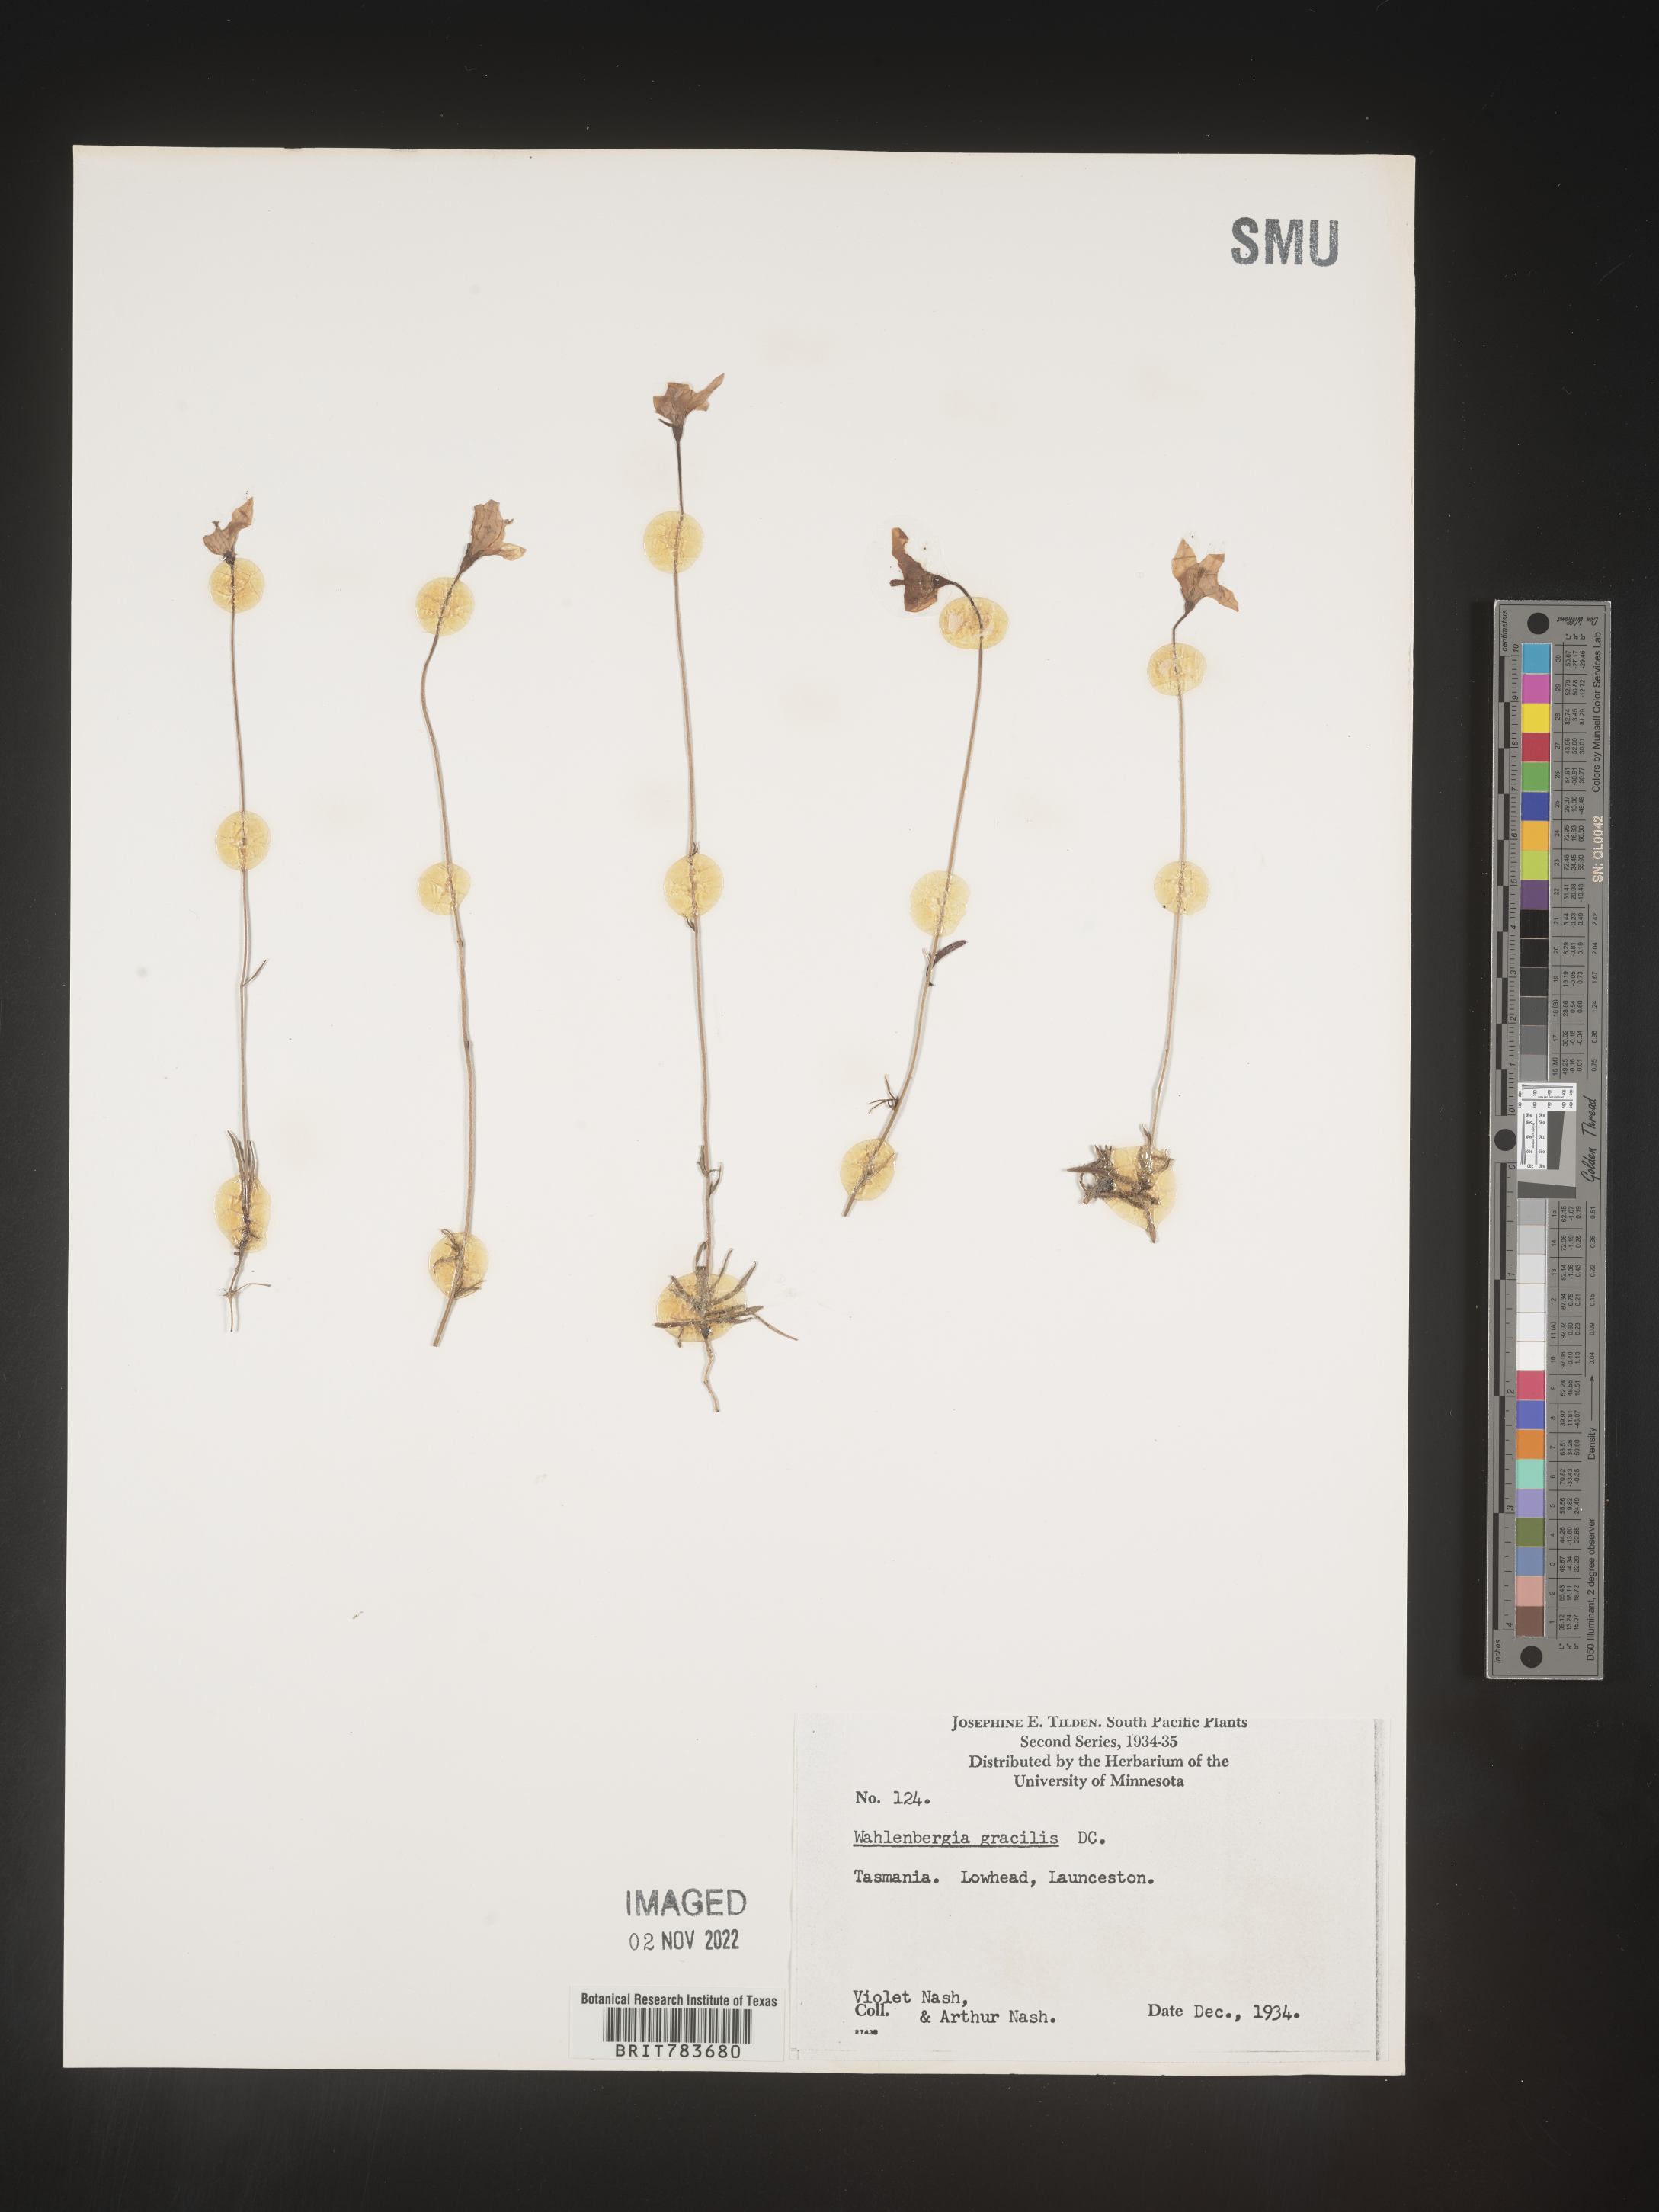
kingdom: Plantae
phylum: Tracheophyta
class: Magnoliopsida
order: Asterales
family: Campanulaceae
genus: Wahlenbergia
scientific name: Wahlenbergia
